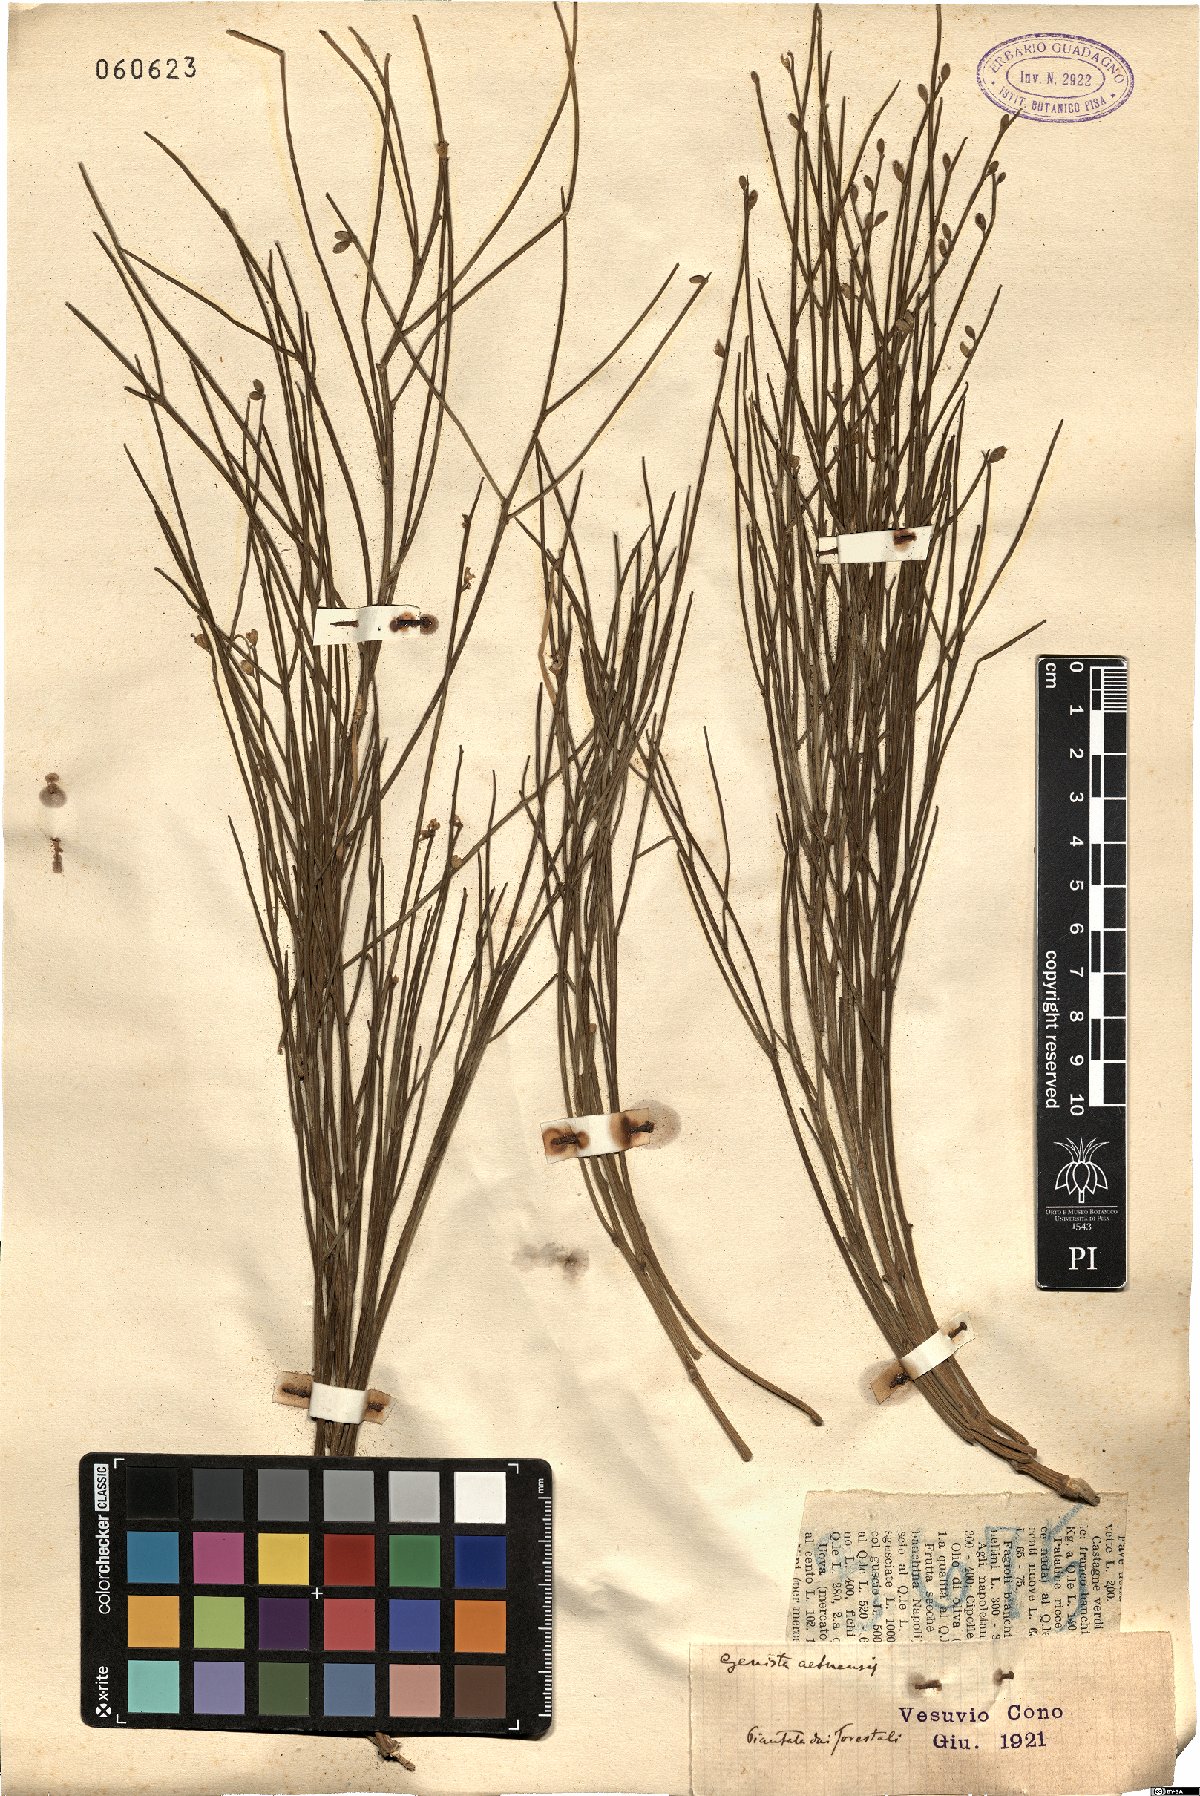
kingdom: Plantae
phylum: Tracheophyta
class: Magnoliopsida
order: Fabales
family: Fabaceae
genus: Genista
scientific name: Genista aetnensis
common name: Mount etna broom
